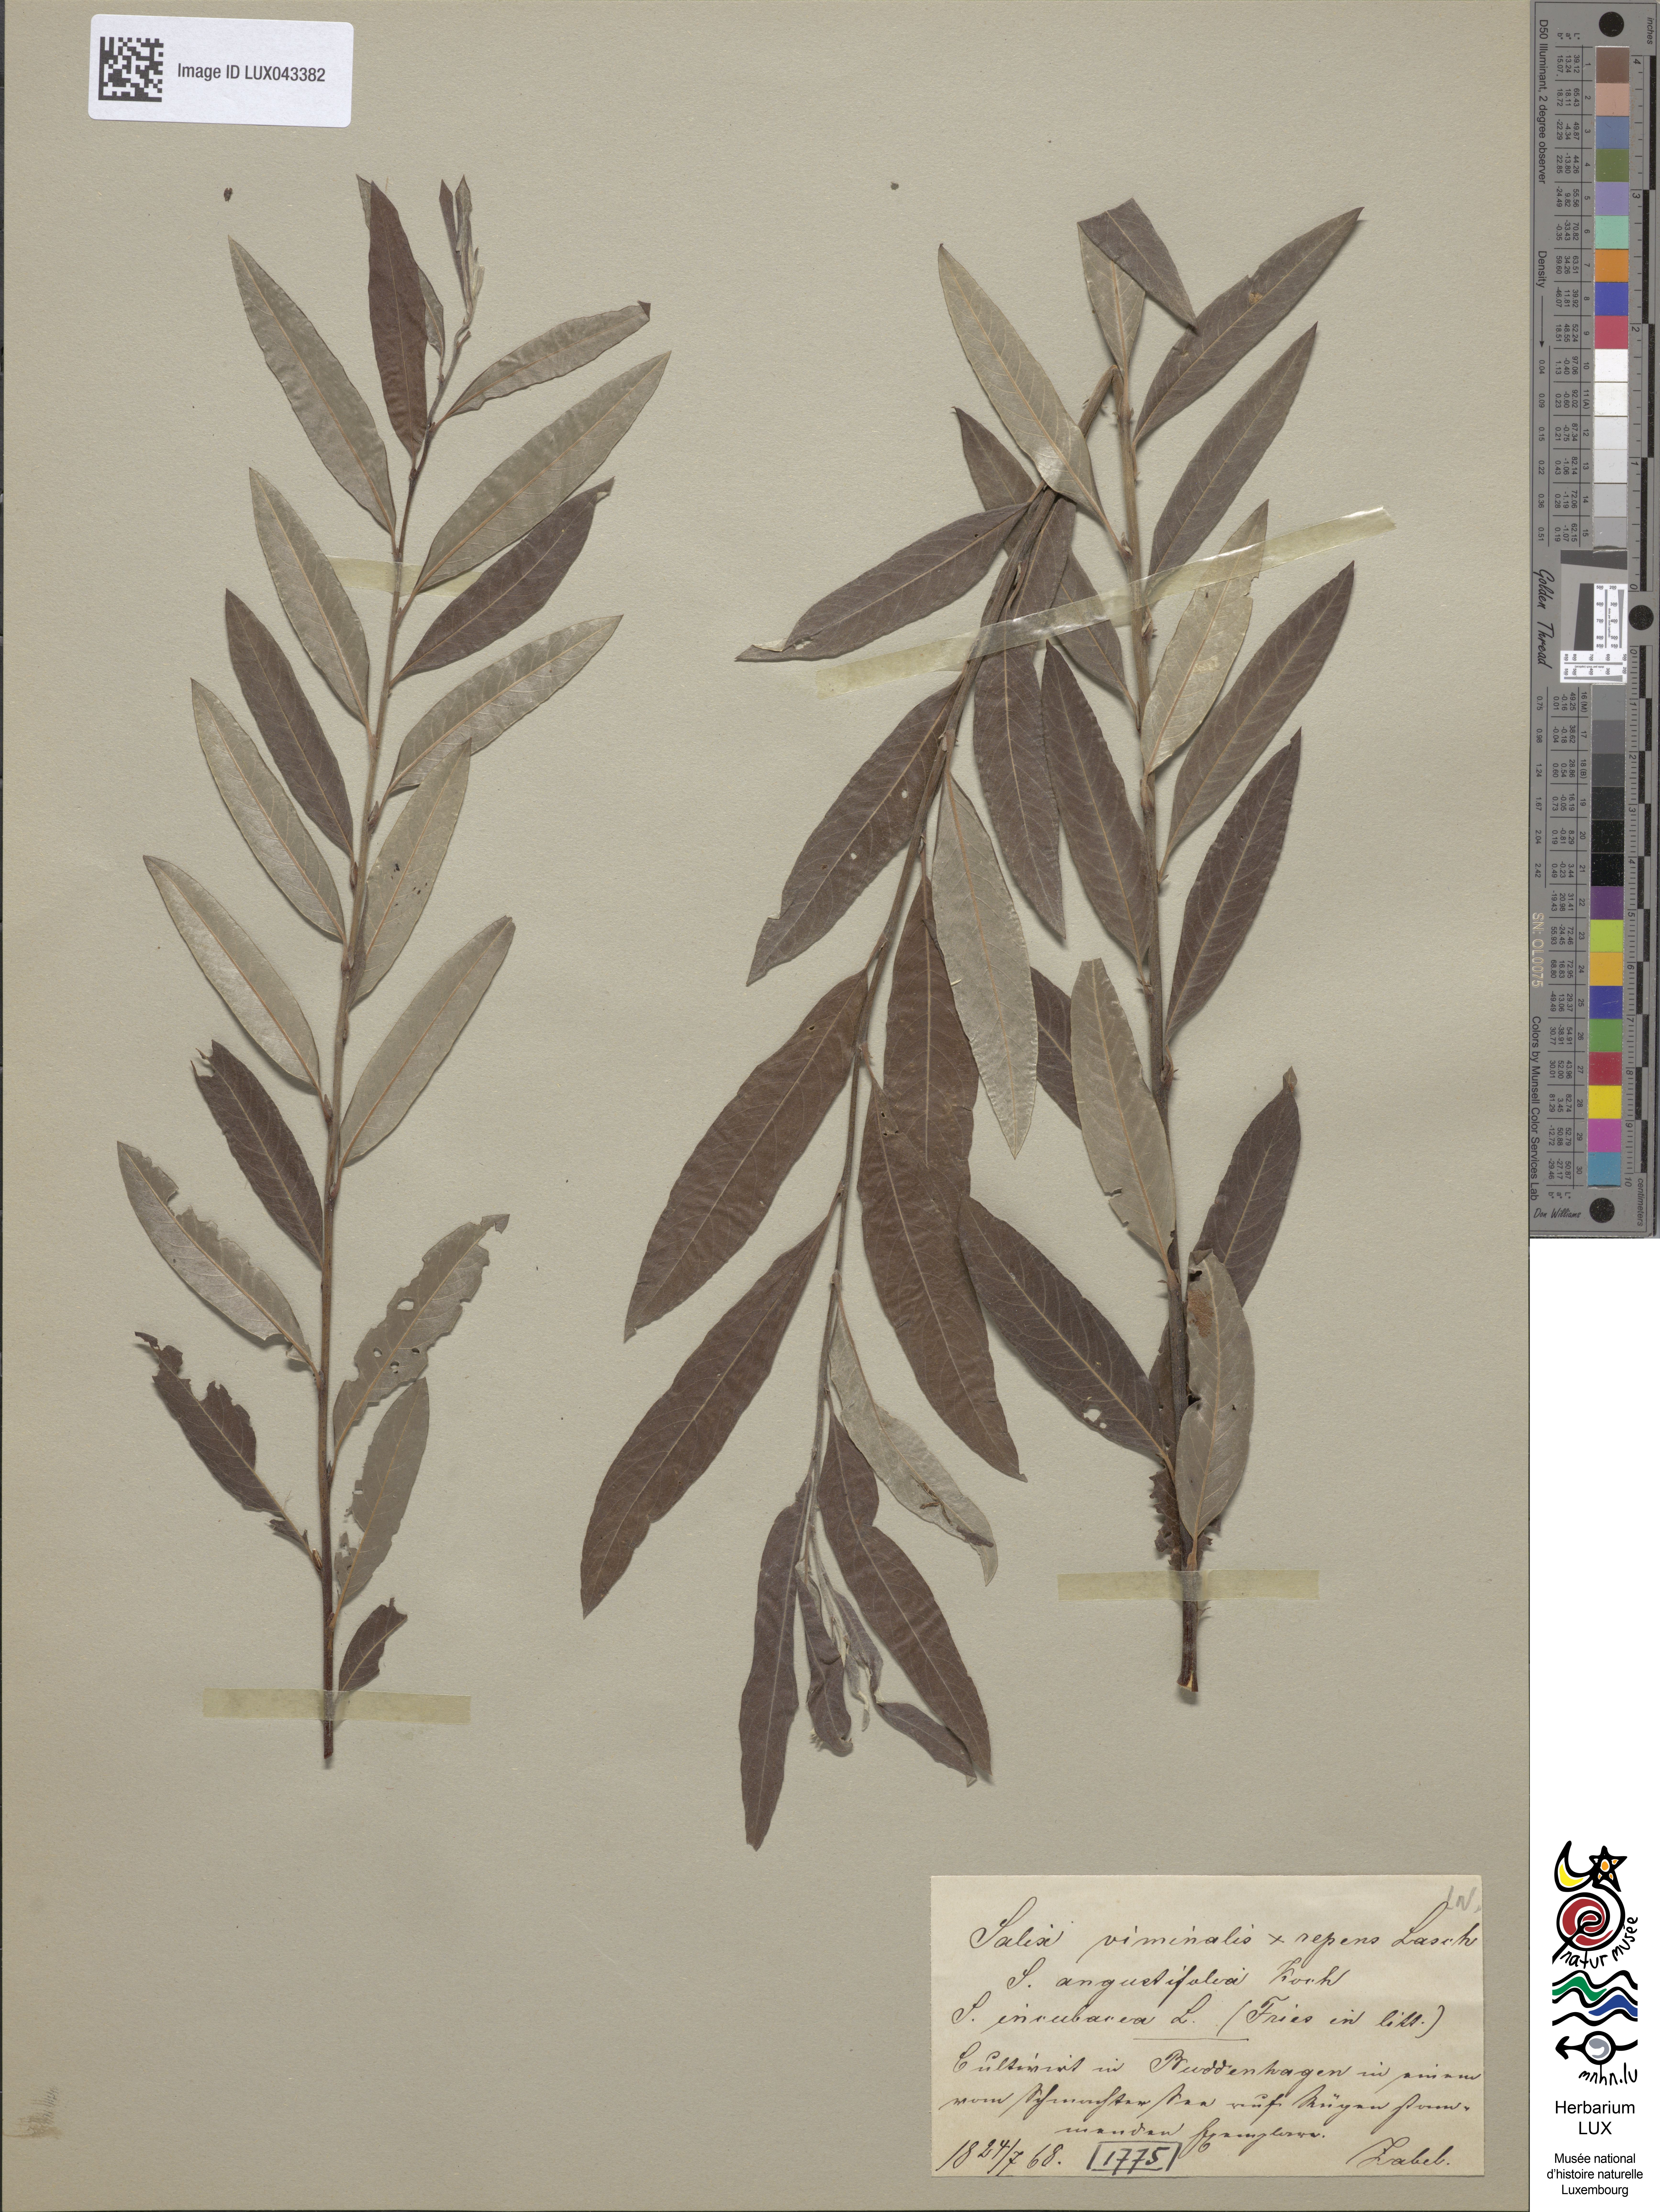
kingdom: Plantae
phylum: Tracheophyta
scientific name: Tracheophyta
